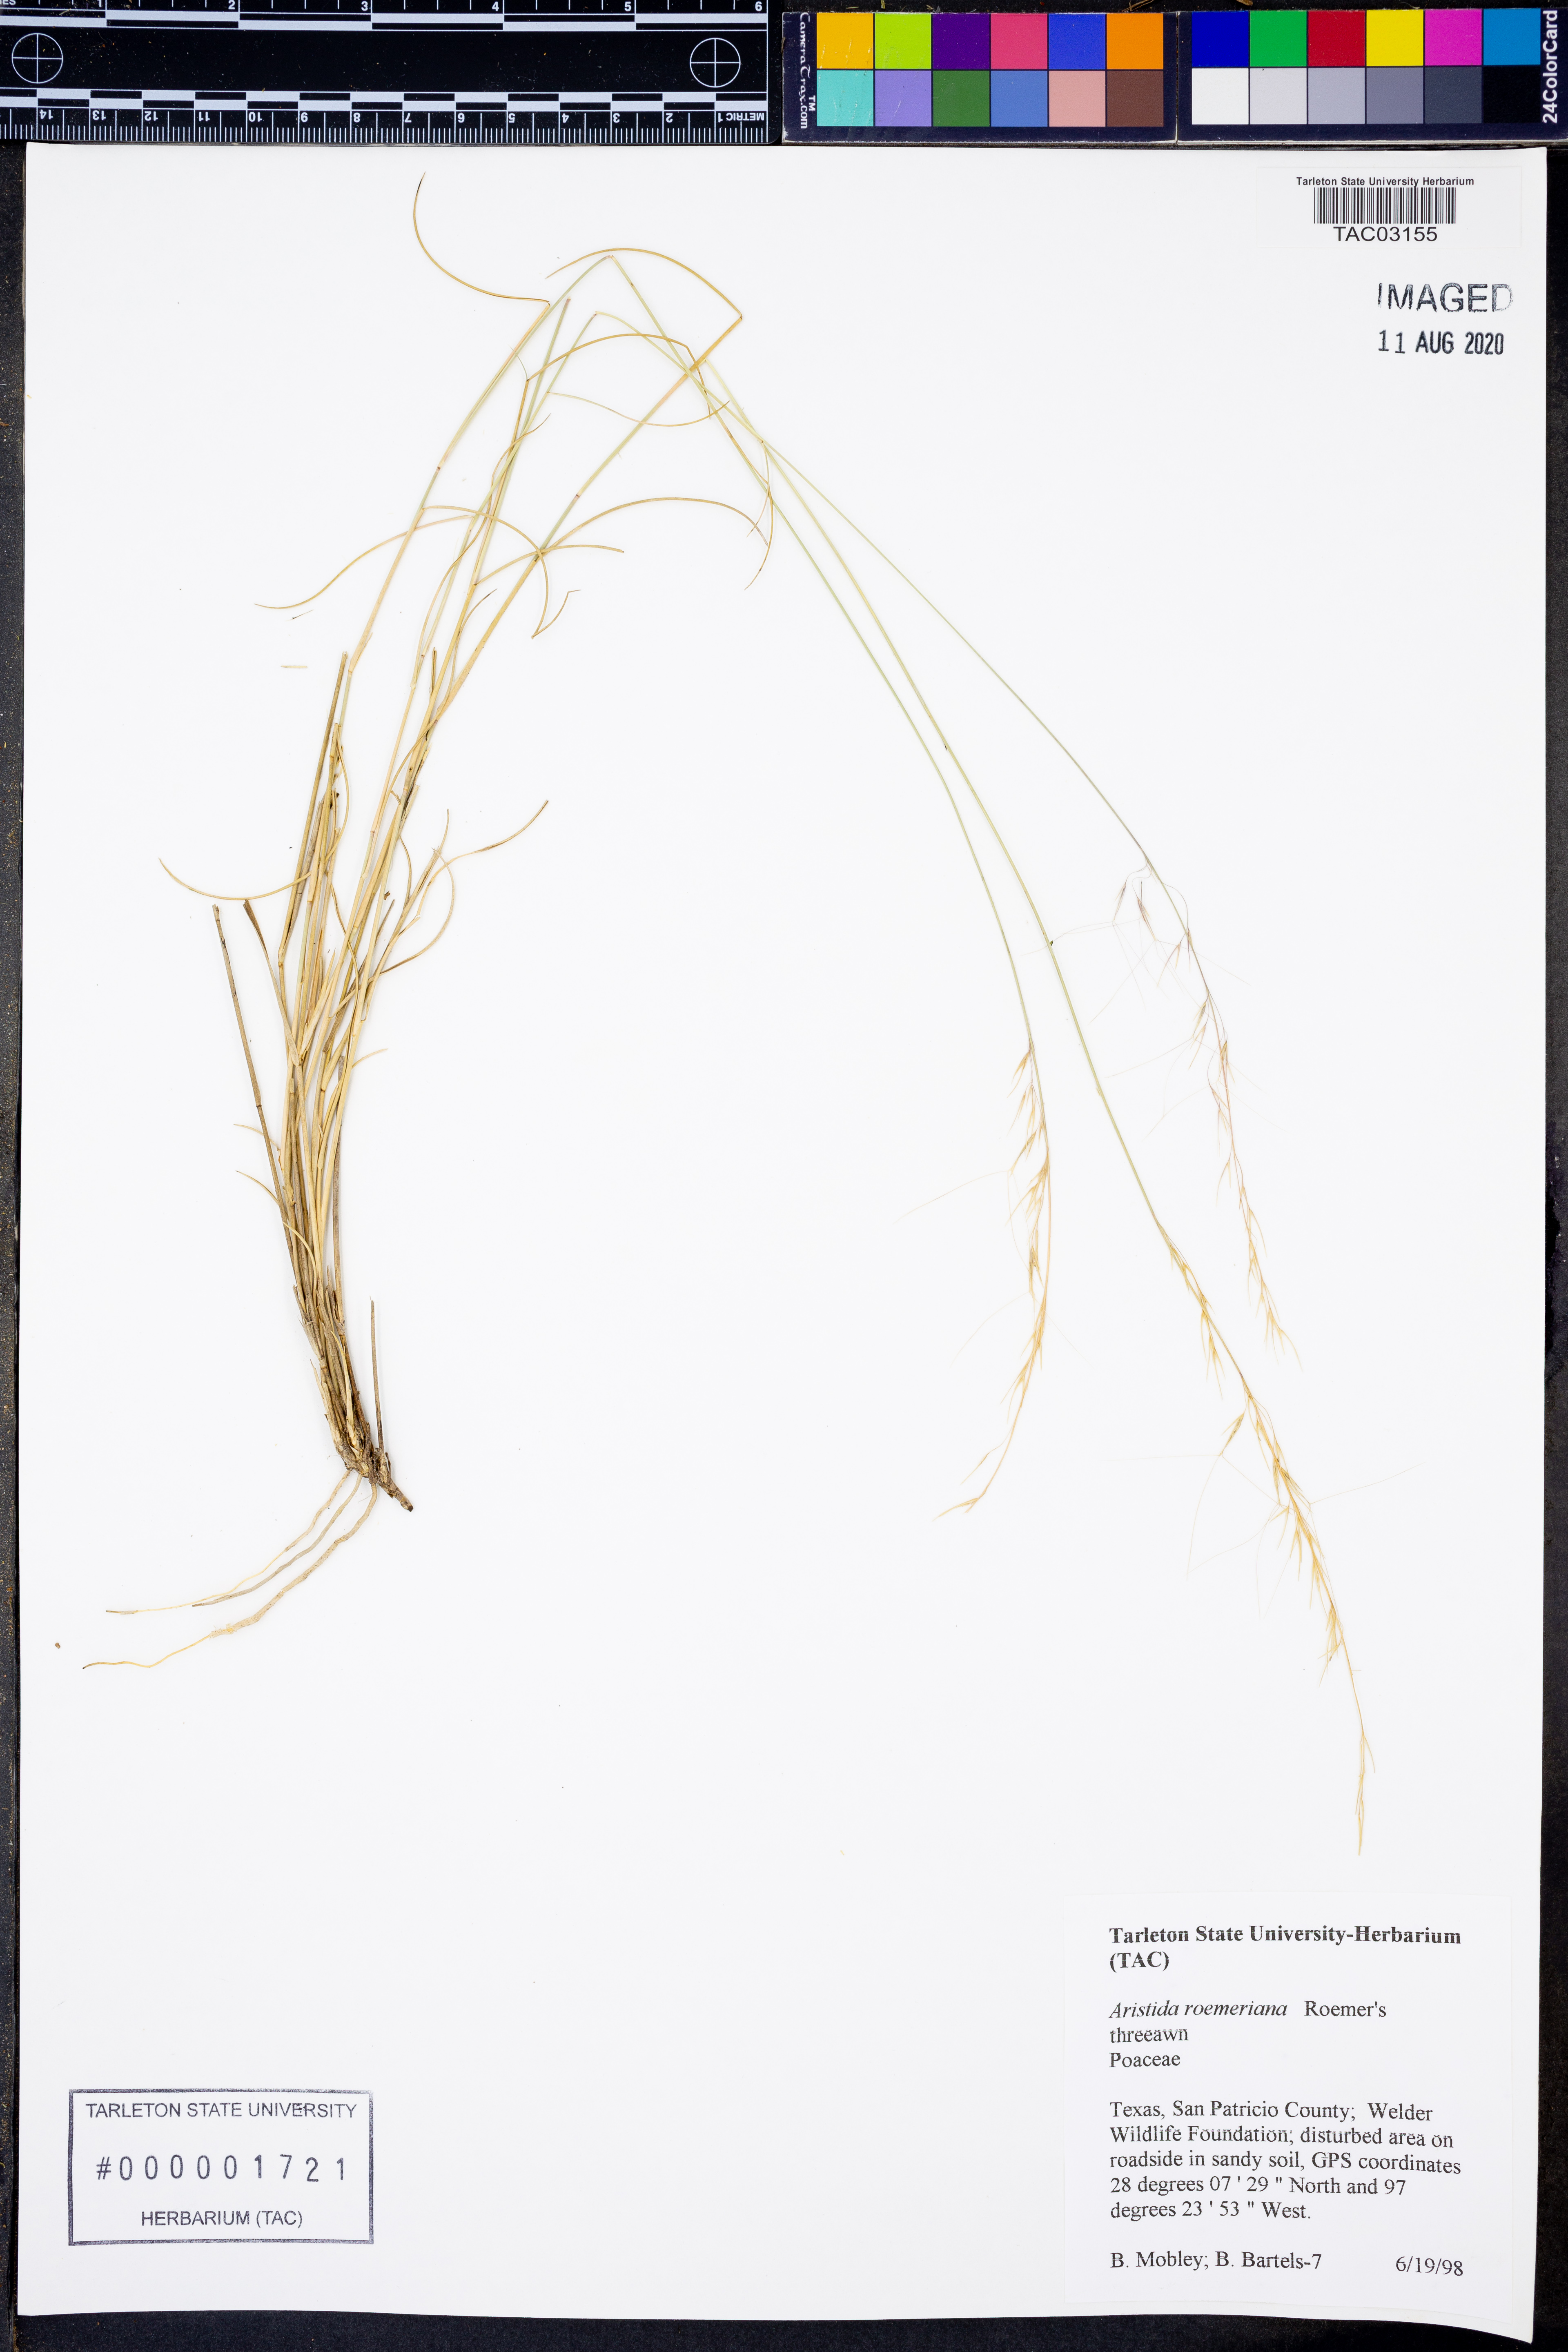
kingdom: Plantae
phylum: Tracheophyta
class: Liliopsida
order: Poales
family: Poaceae
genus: Aristida
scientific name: Aristida purpurea
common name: Purple threeawn
